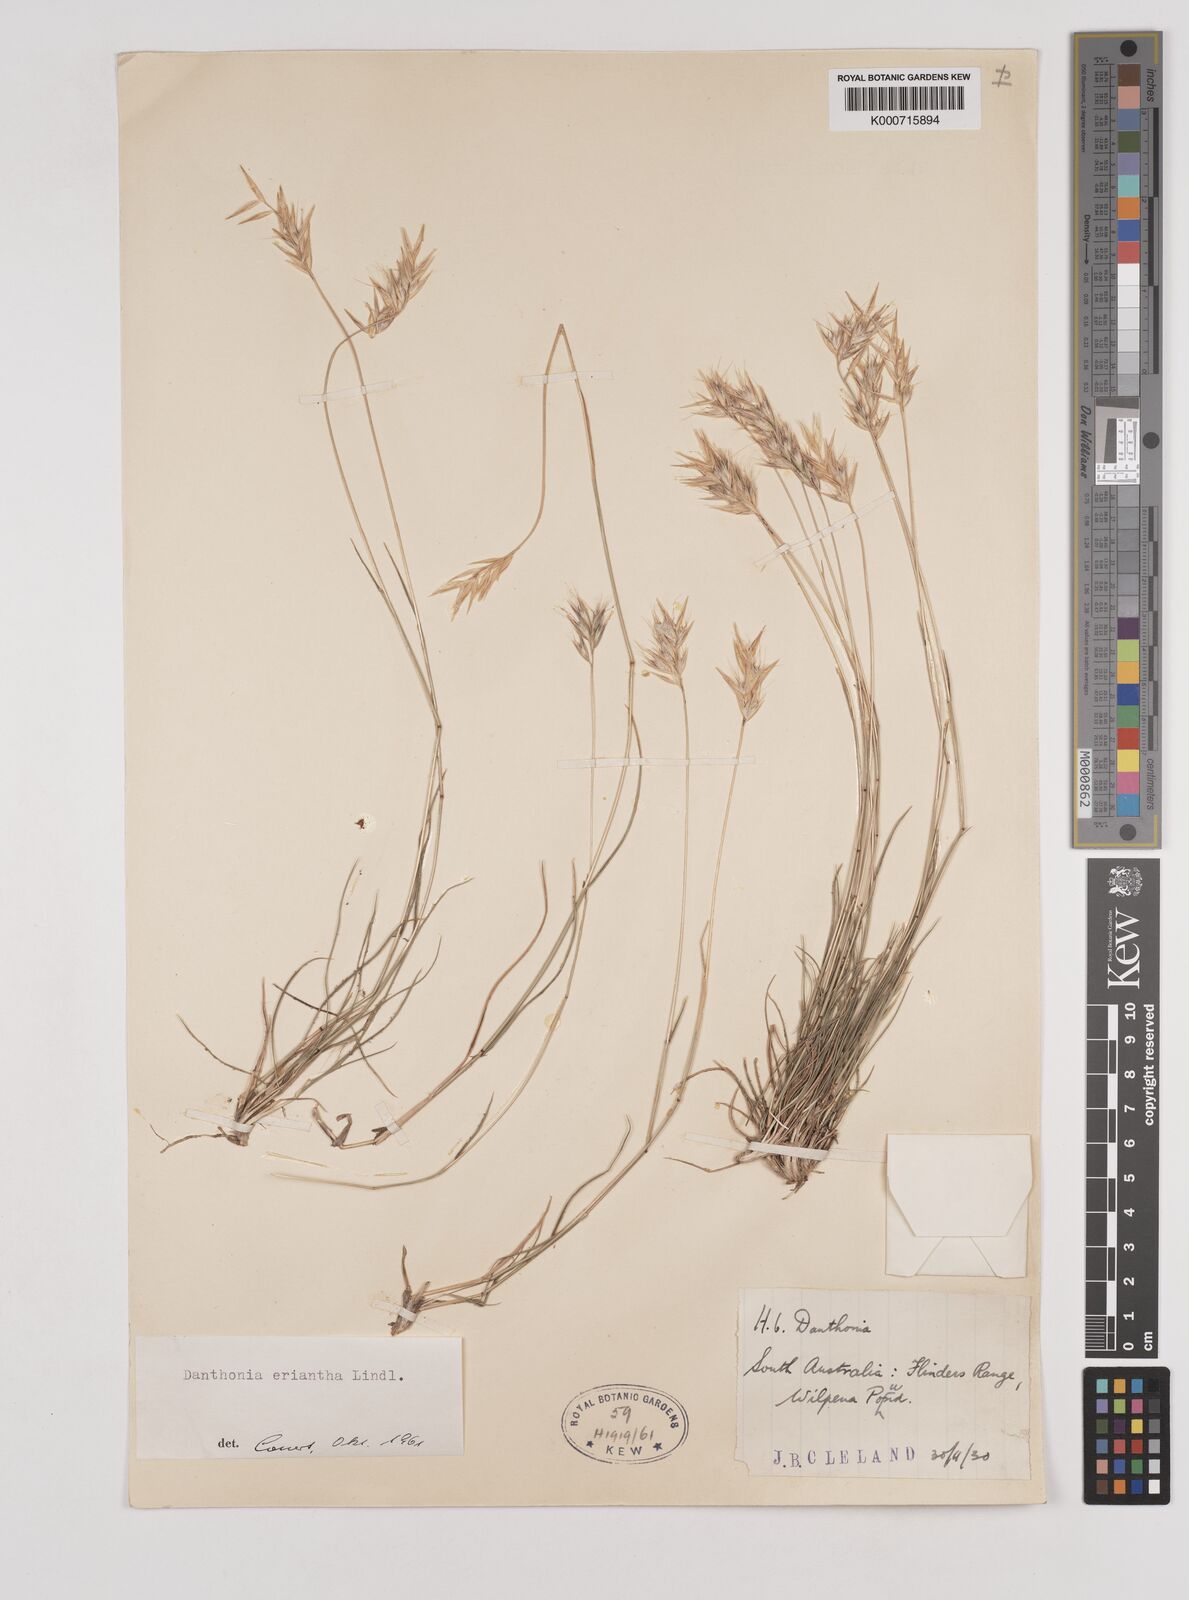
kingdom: Plantae
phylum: Tracheophyta
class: Liliopsida
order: Poales
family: Poaceae
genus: Rytidosperma
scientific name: Rytidosperma erianthum
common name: Hill wallaby grass
